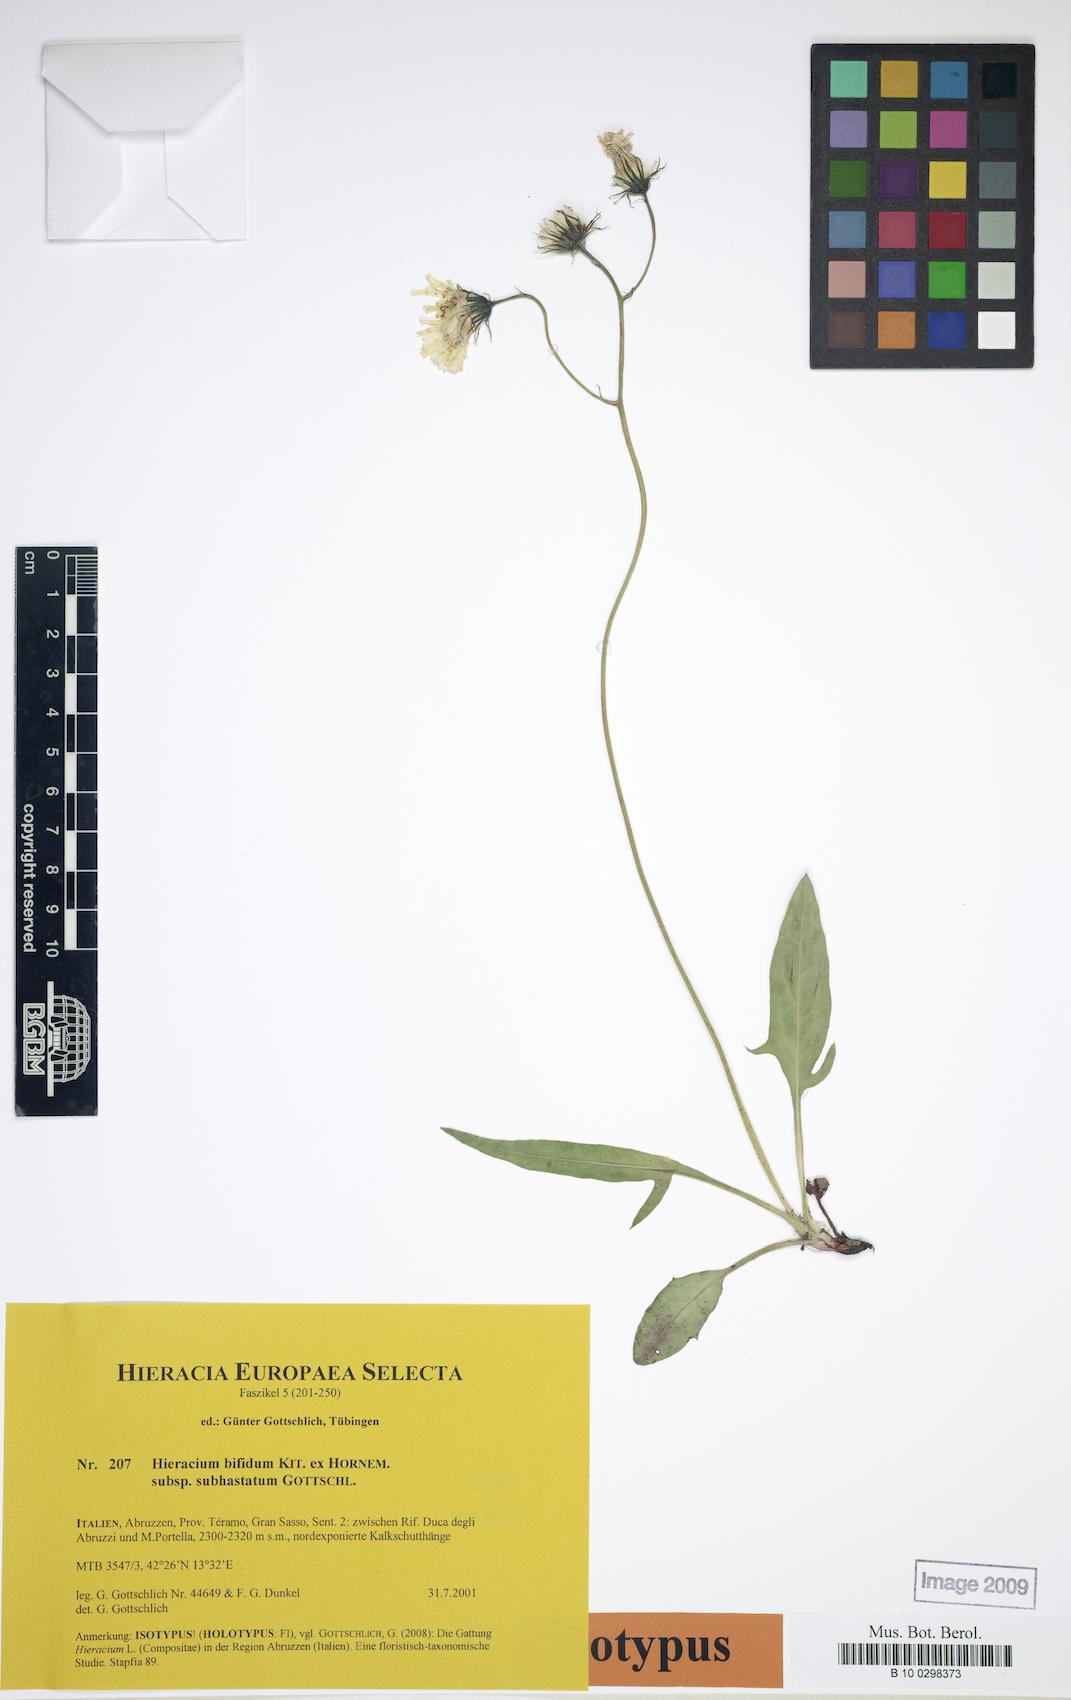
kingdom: Plantae
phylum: Tracheophyta
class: Magnoliopsida
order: Asterales
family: Asteraceae
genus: Hieracium
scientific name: Hieracium bifidum
